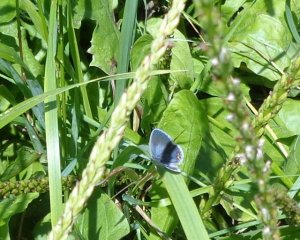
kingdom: Animalia
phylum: Arthropoda
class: Insecta
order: Lepidoptera
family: Lycaenidae
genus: Elkalyce
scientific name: Elkalyce comyntas
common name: Eastern Tailed-Blue
